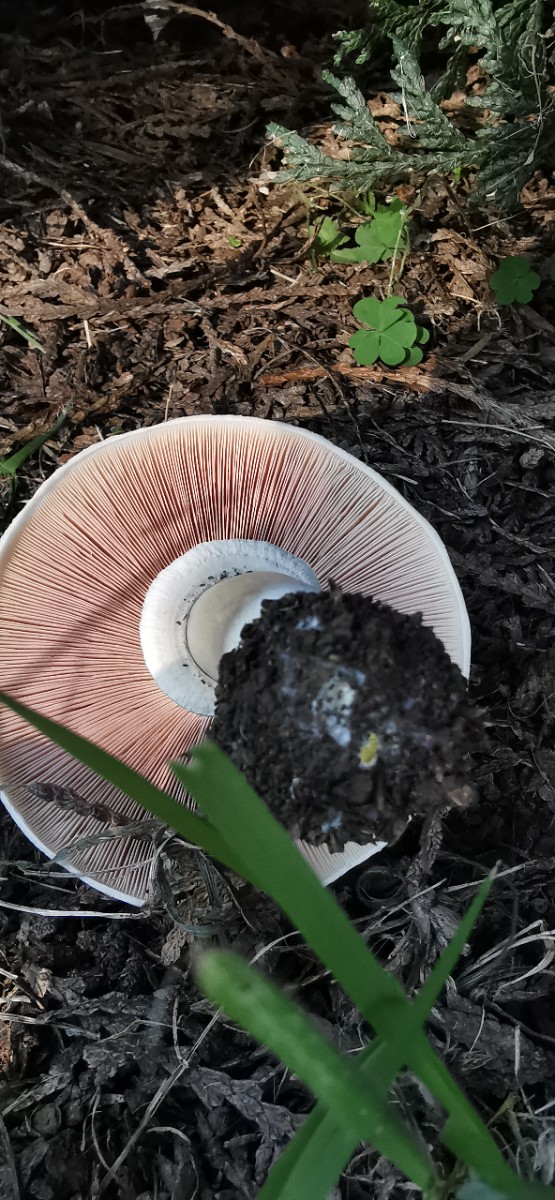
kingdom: Fungi
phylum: Basidiomycota
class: Agaricomycetes
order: Agaricales
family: Agaricaceae
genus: Agaricus
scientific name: Agaricus xanthodermus
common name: karbol-champignon
